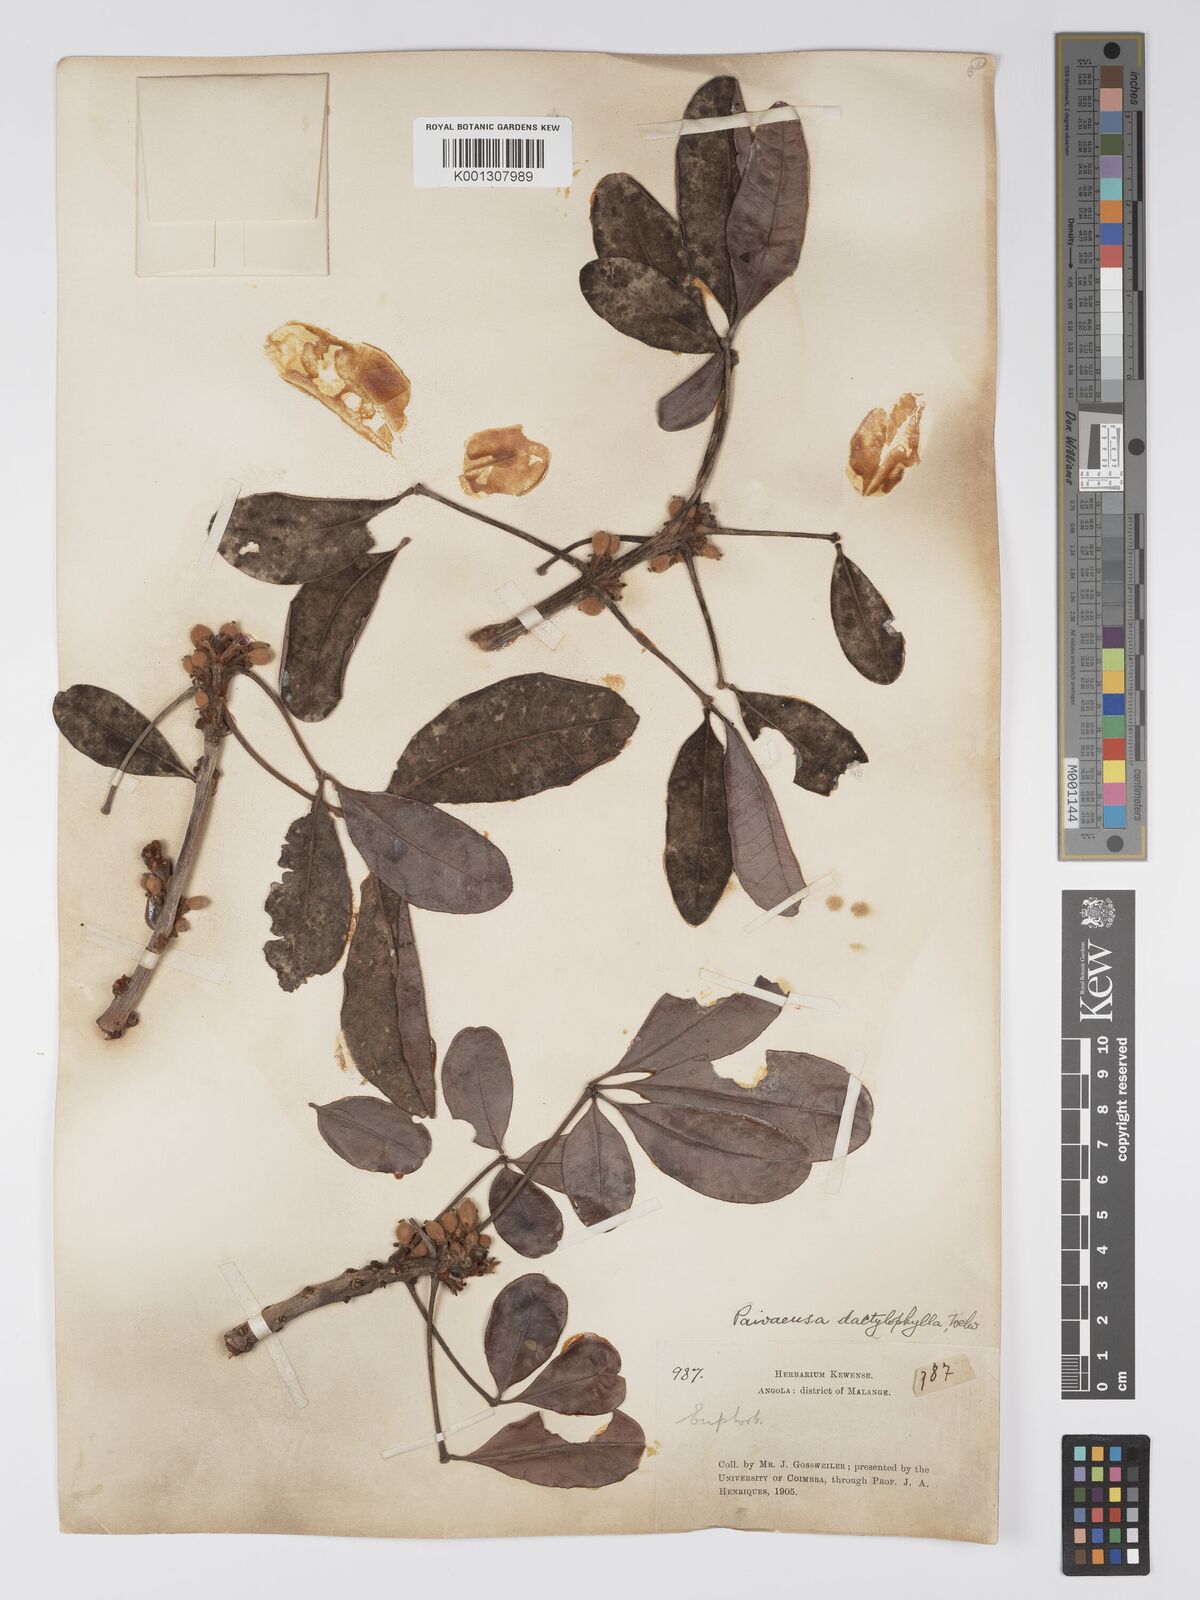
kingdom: Plantae
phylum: Tracheophyta
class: Magnoliopsida
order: Malpighiales
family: Picrodendraceae
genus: Oldfieldia
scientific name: Oldfieldia dactylophylla
